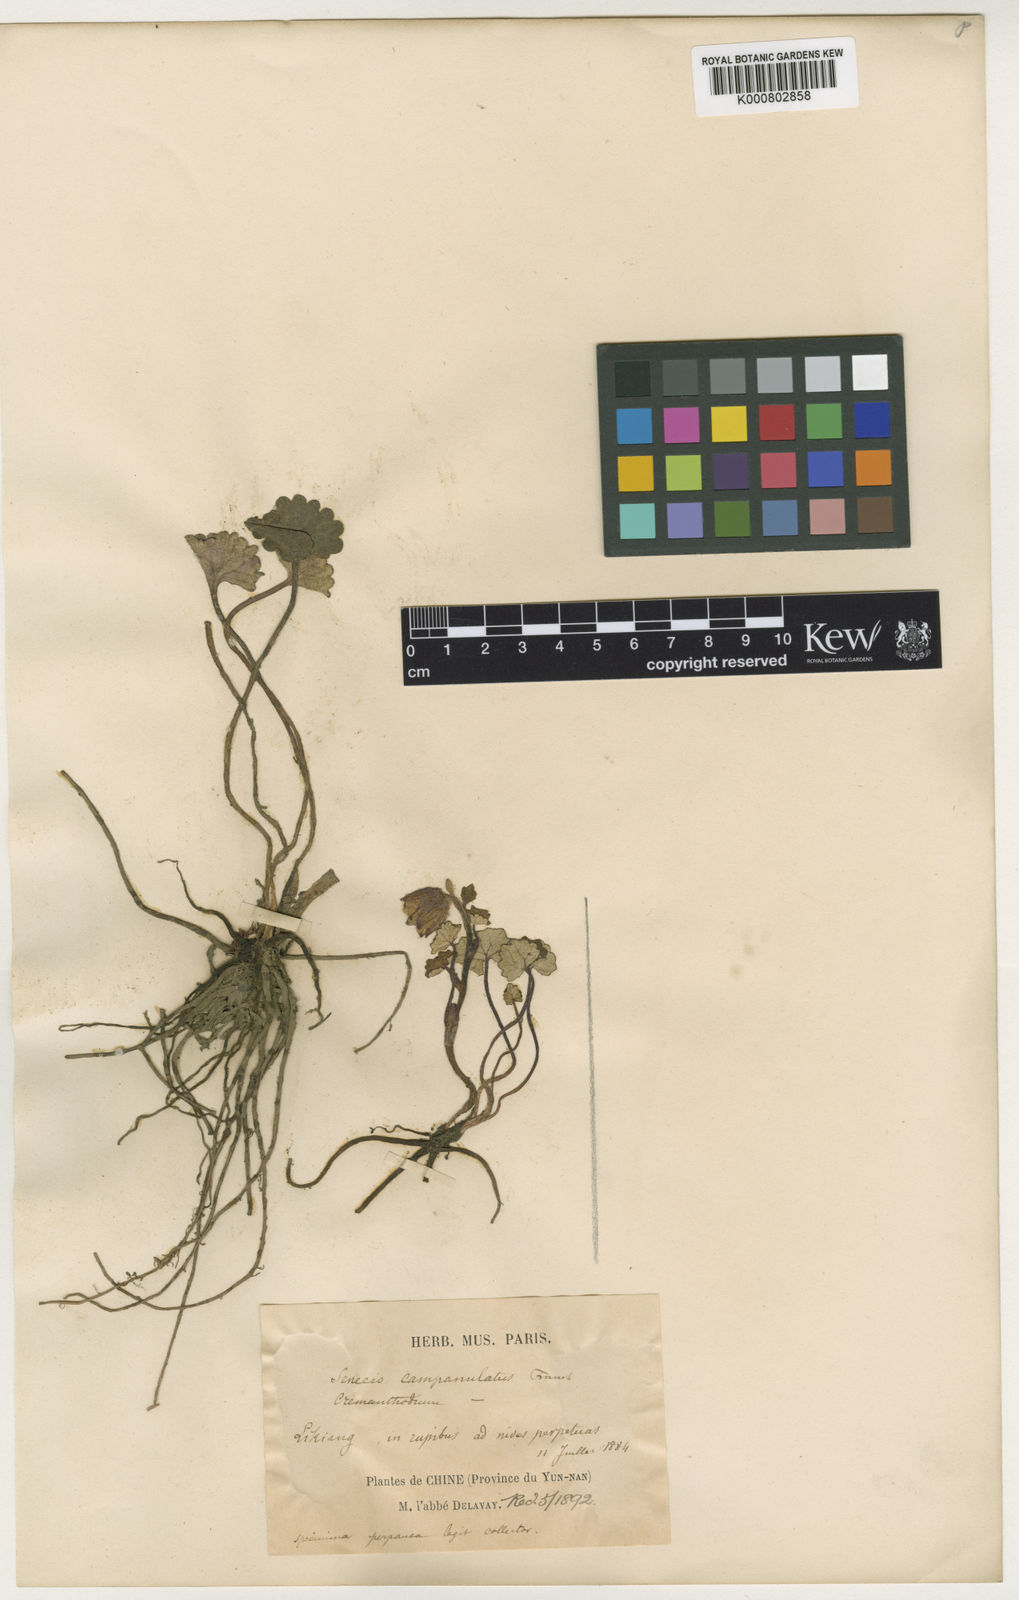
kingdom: Plantae
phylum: Tracheophyta
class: Magnoliopsida
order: Asterales
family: Asteraceae
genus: Cremanthodium
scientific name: Cremanthodium campanulatum
